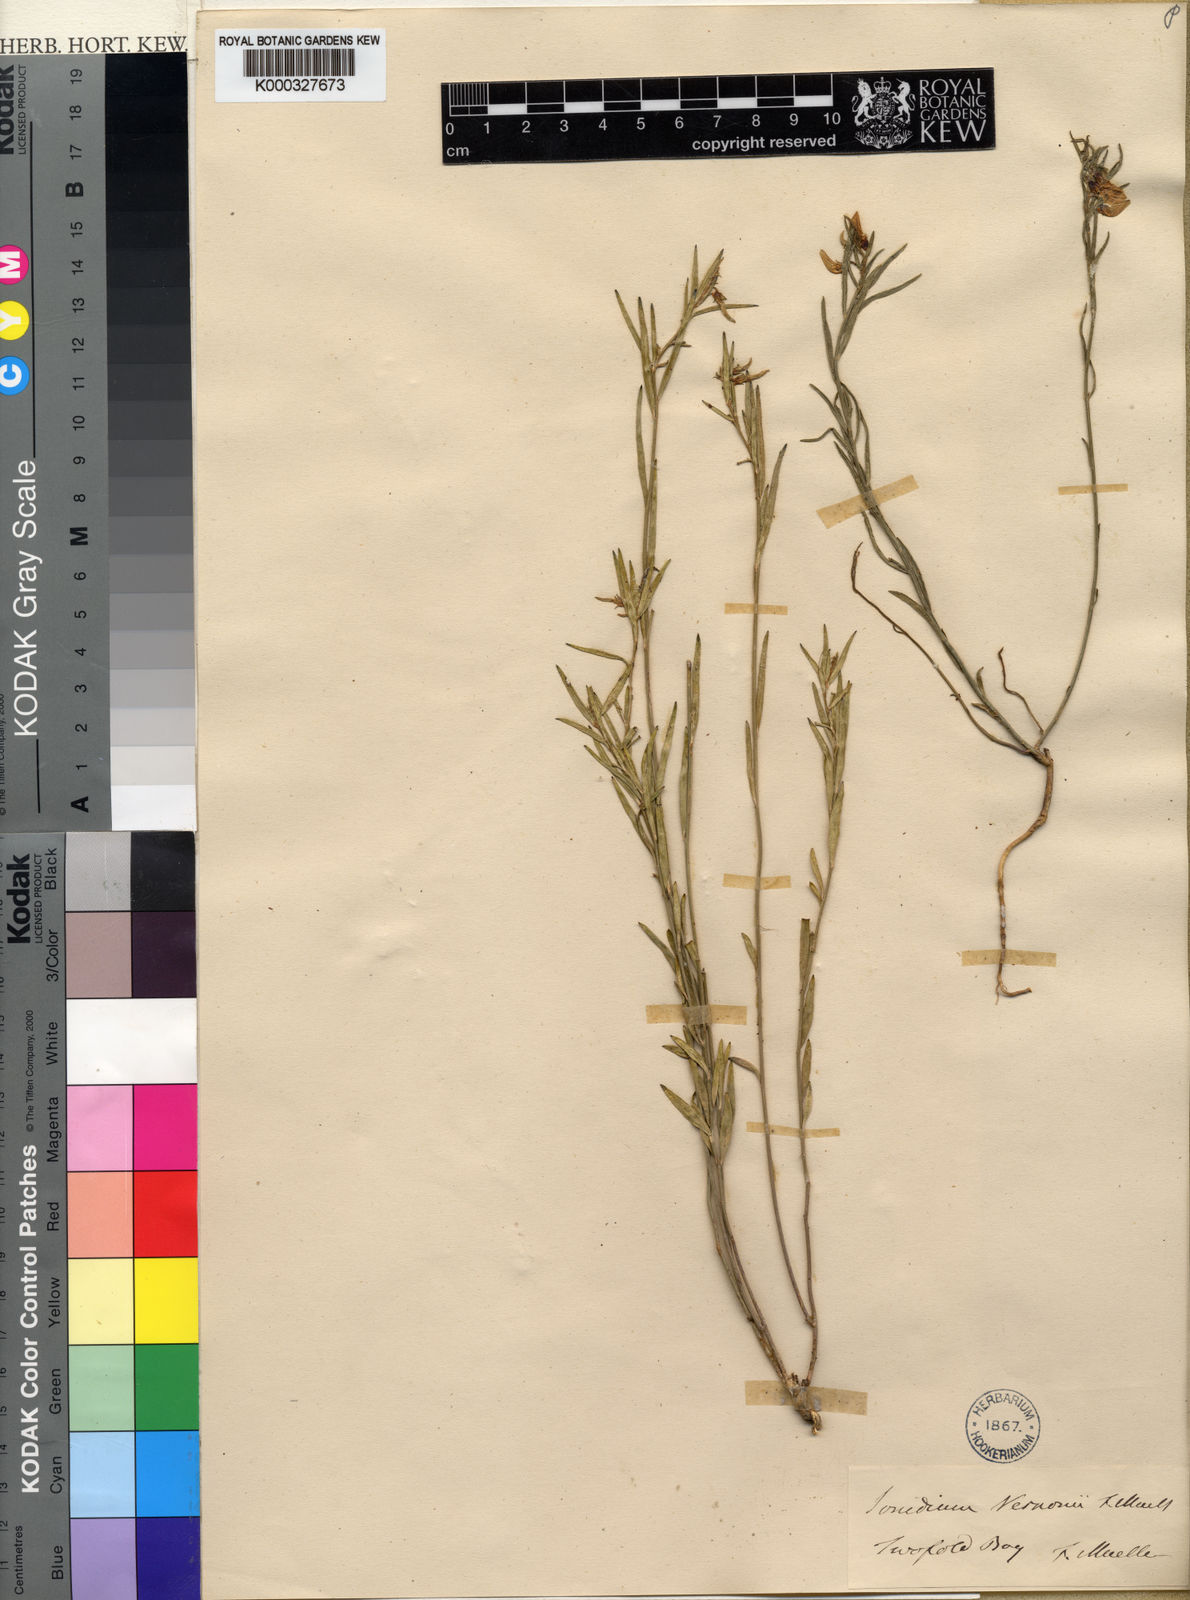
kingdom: Plantae
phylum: Tracheophyta
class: Magnoliopsida
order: Malpighiales
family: Violaceae
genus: Pigea
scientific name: Pigea vernonii
